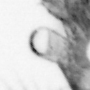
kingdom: Animalia
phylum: Arthropoda
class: Copepoda
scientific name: Copepoda
